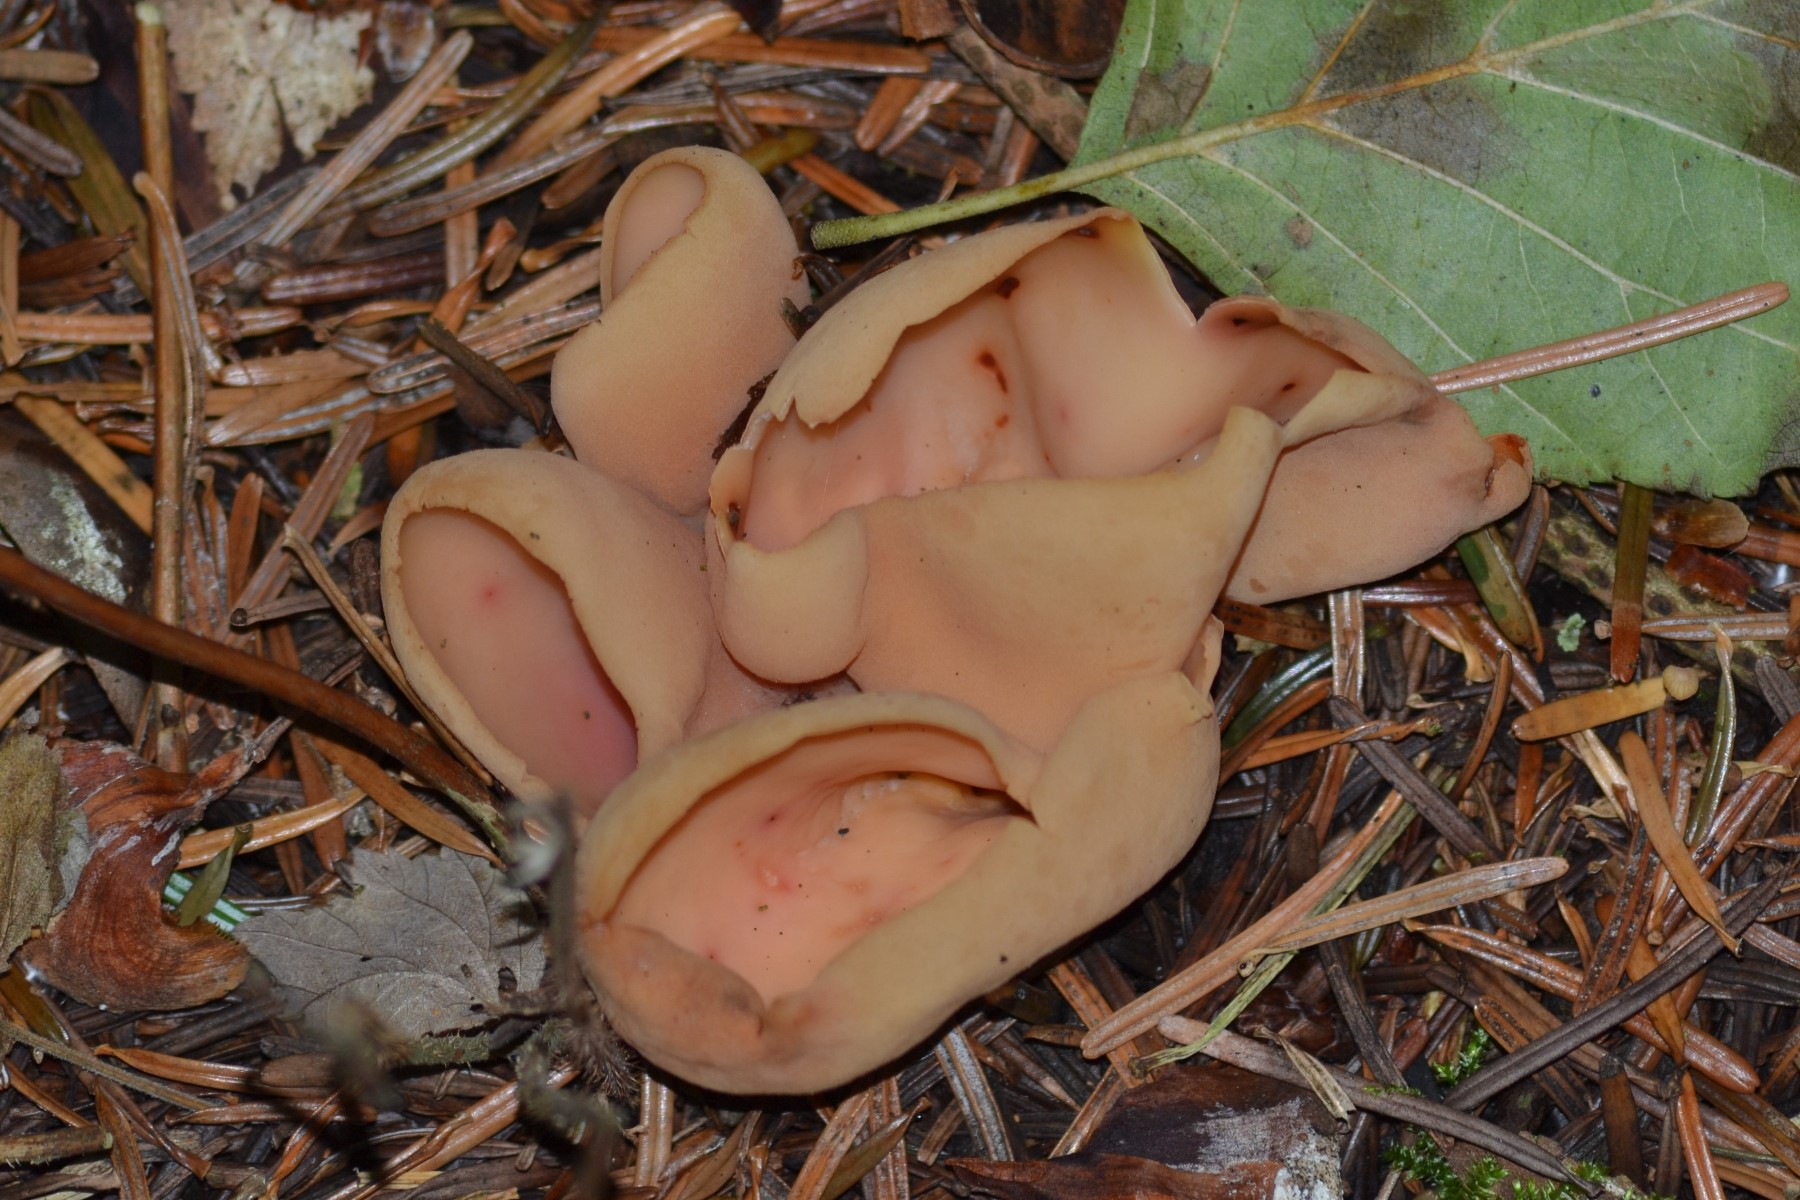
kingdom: Fungi
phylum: Ascomycota
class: Pezizomycetes
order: Pezizales
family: Otideaceae
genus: Otidea
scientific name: Otidea onotica
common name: æsel-ørebæger
